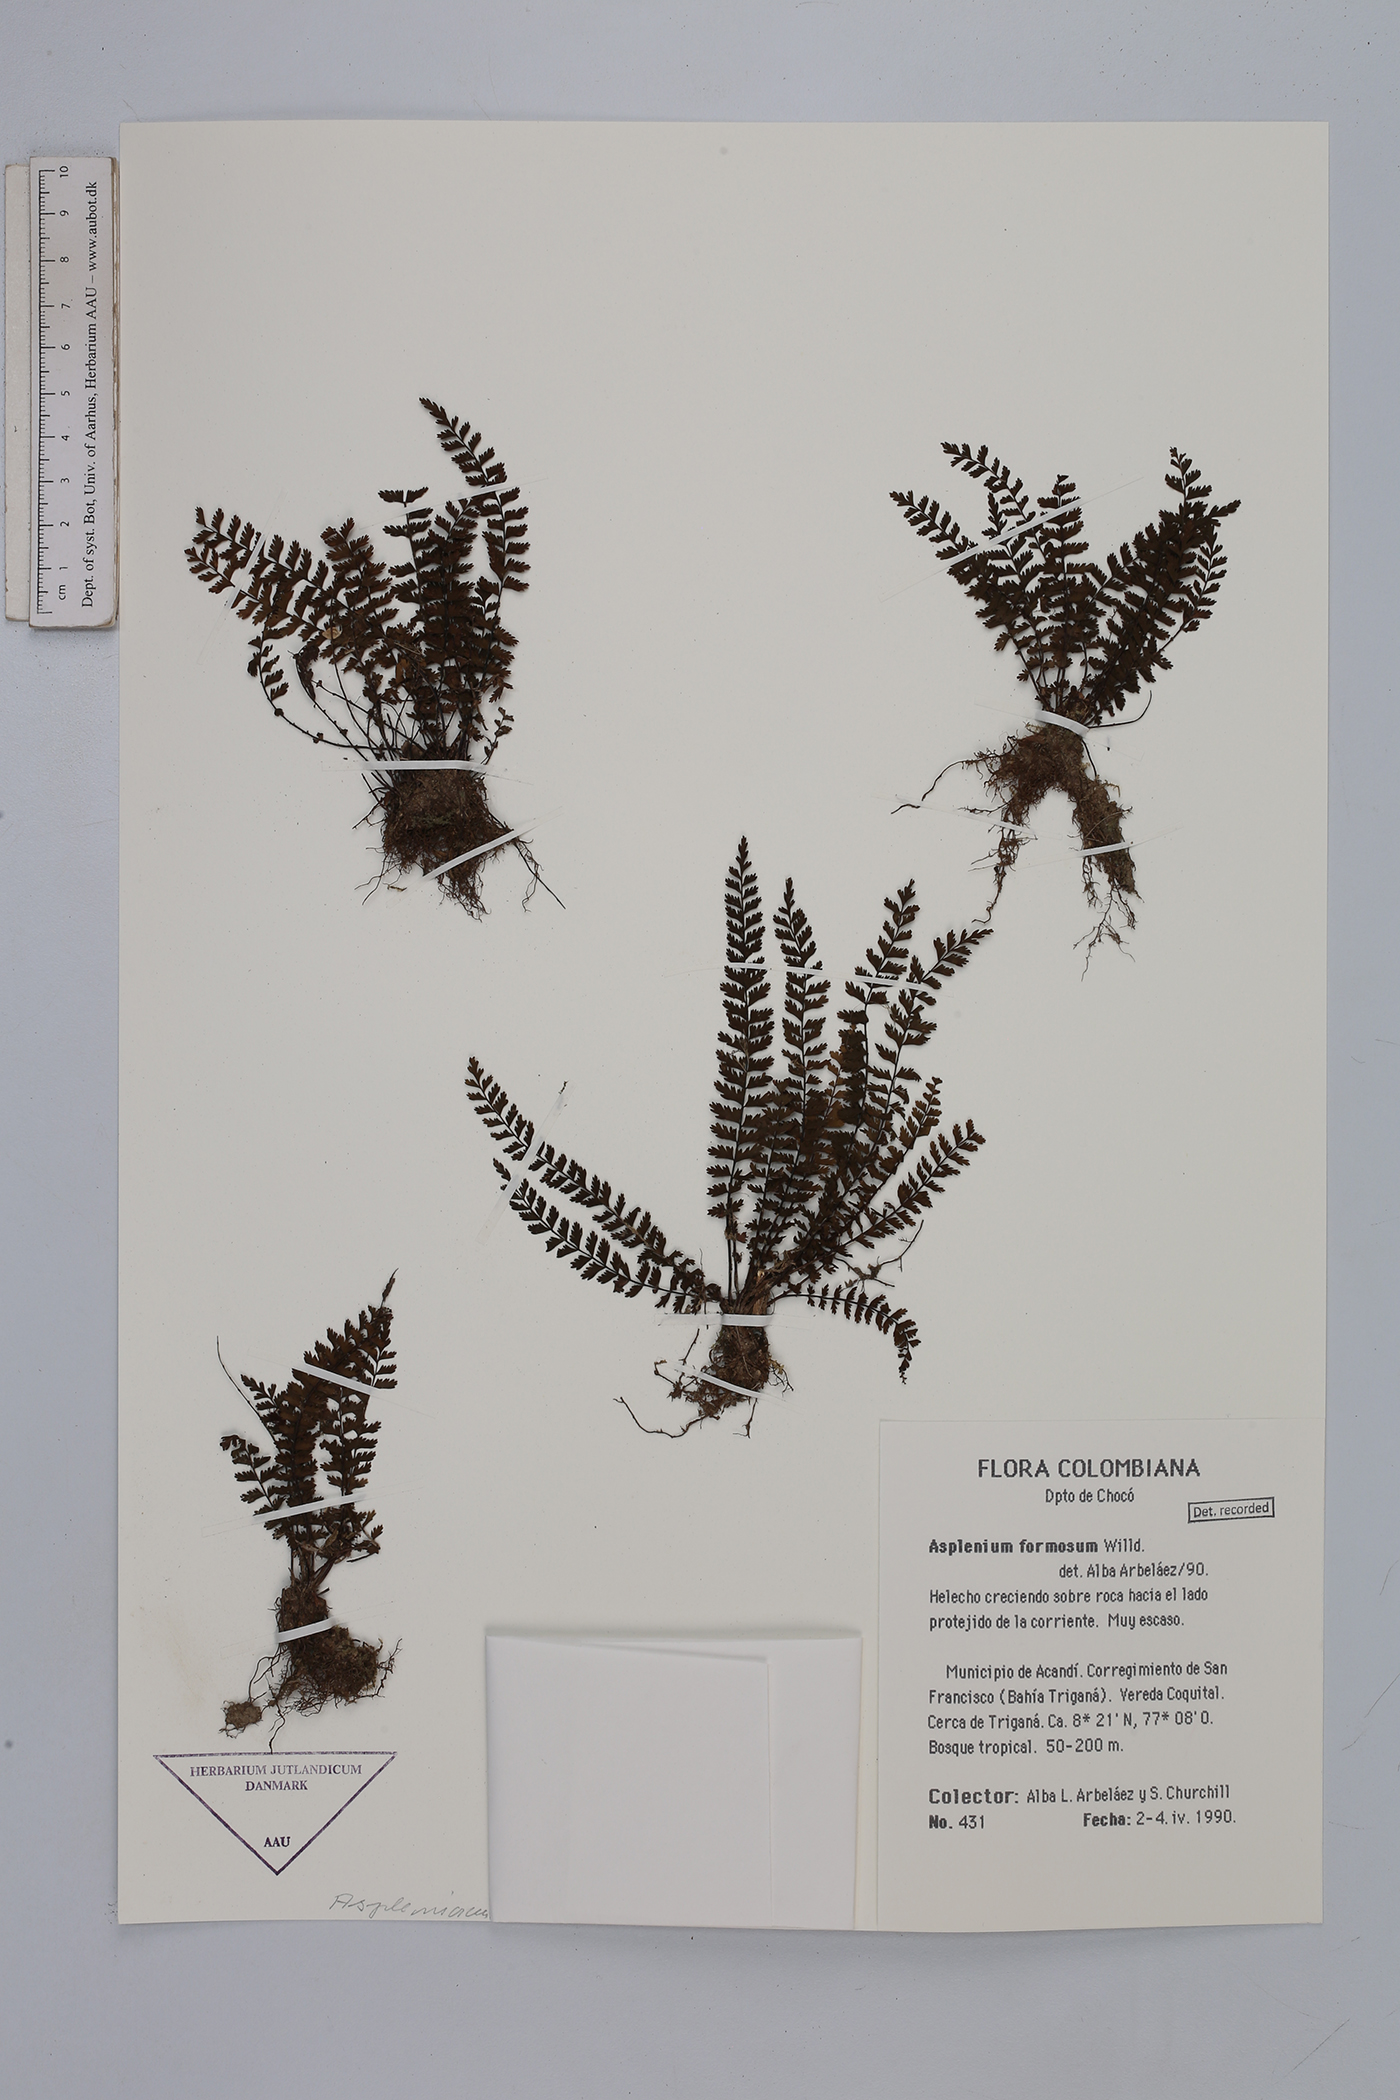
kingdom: Plantae
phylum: Tracheophyta
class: Polypodiopsida
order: Polypodiales
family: Aspleniaceae
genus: Asplenium
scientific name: Asplenium formosum
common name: Showy spleenwort
